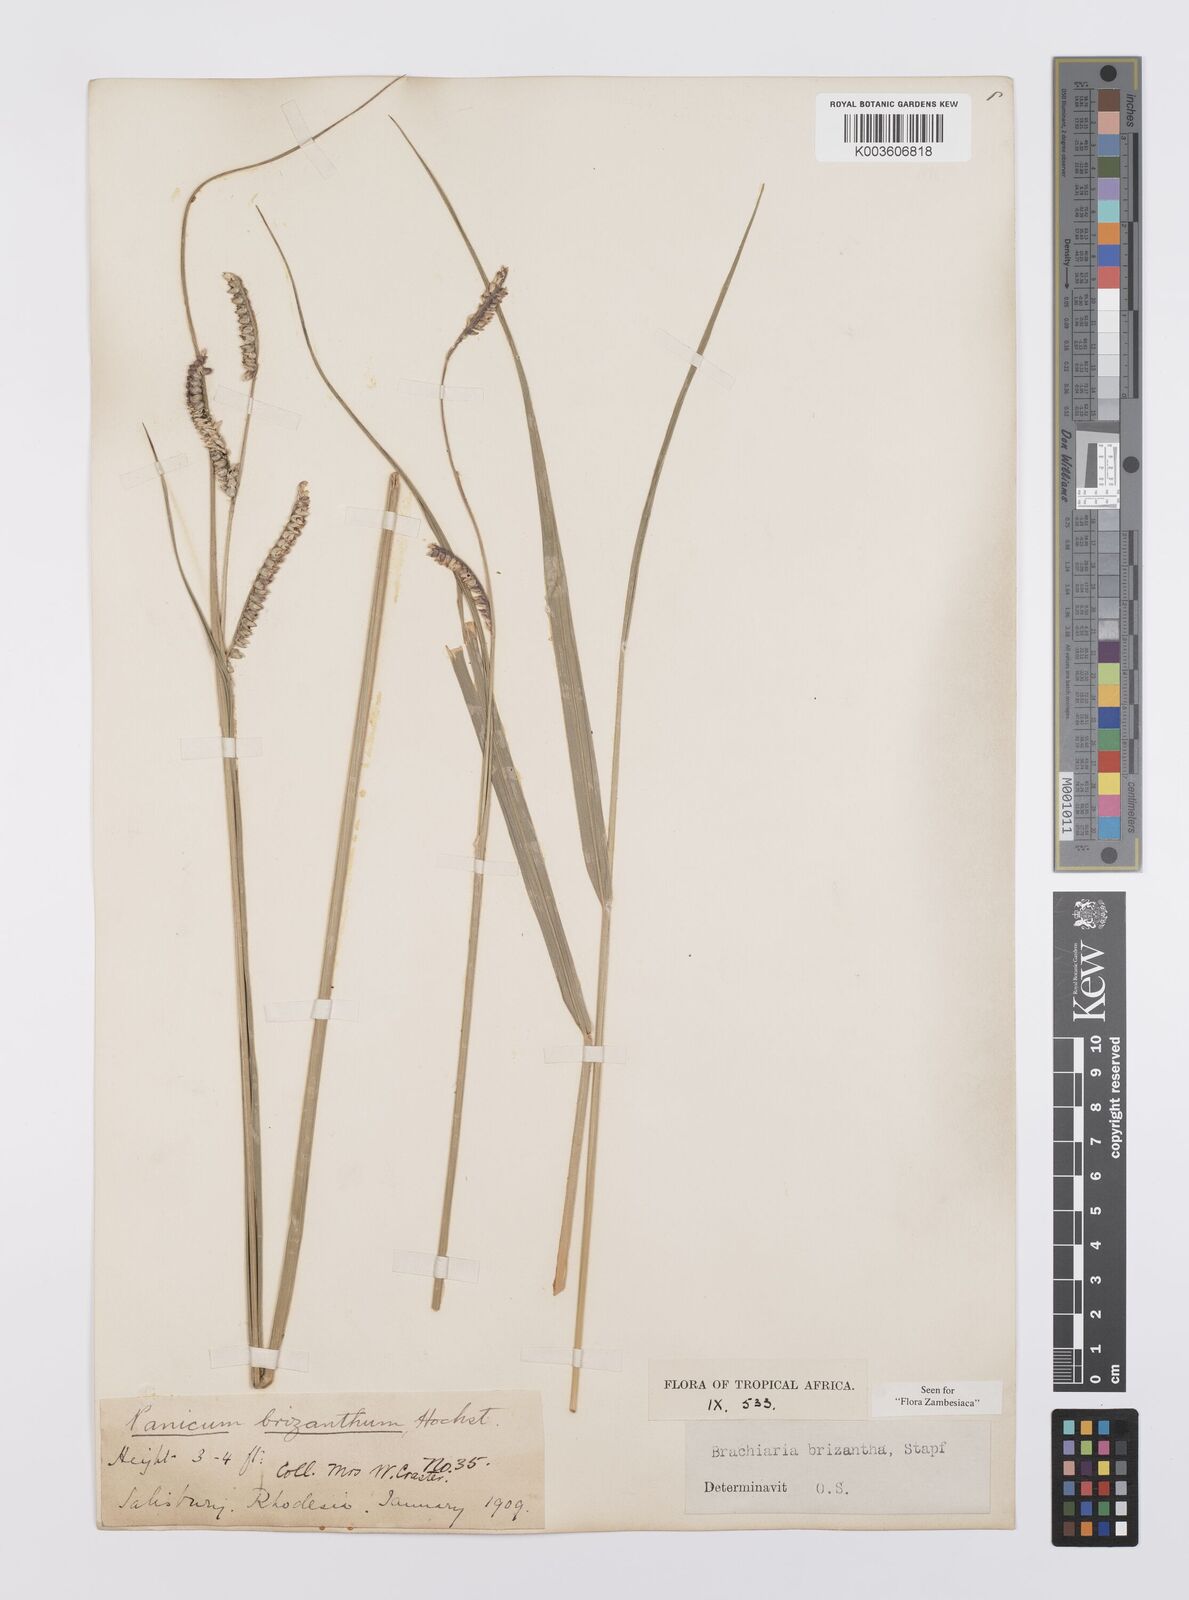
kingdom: Plantae
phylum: Tracheophyta
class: Liliopsida
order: Poales
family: Poaceae
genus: Urochloa
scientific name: Urochloa brizantha
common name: Palisade signalgrass
